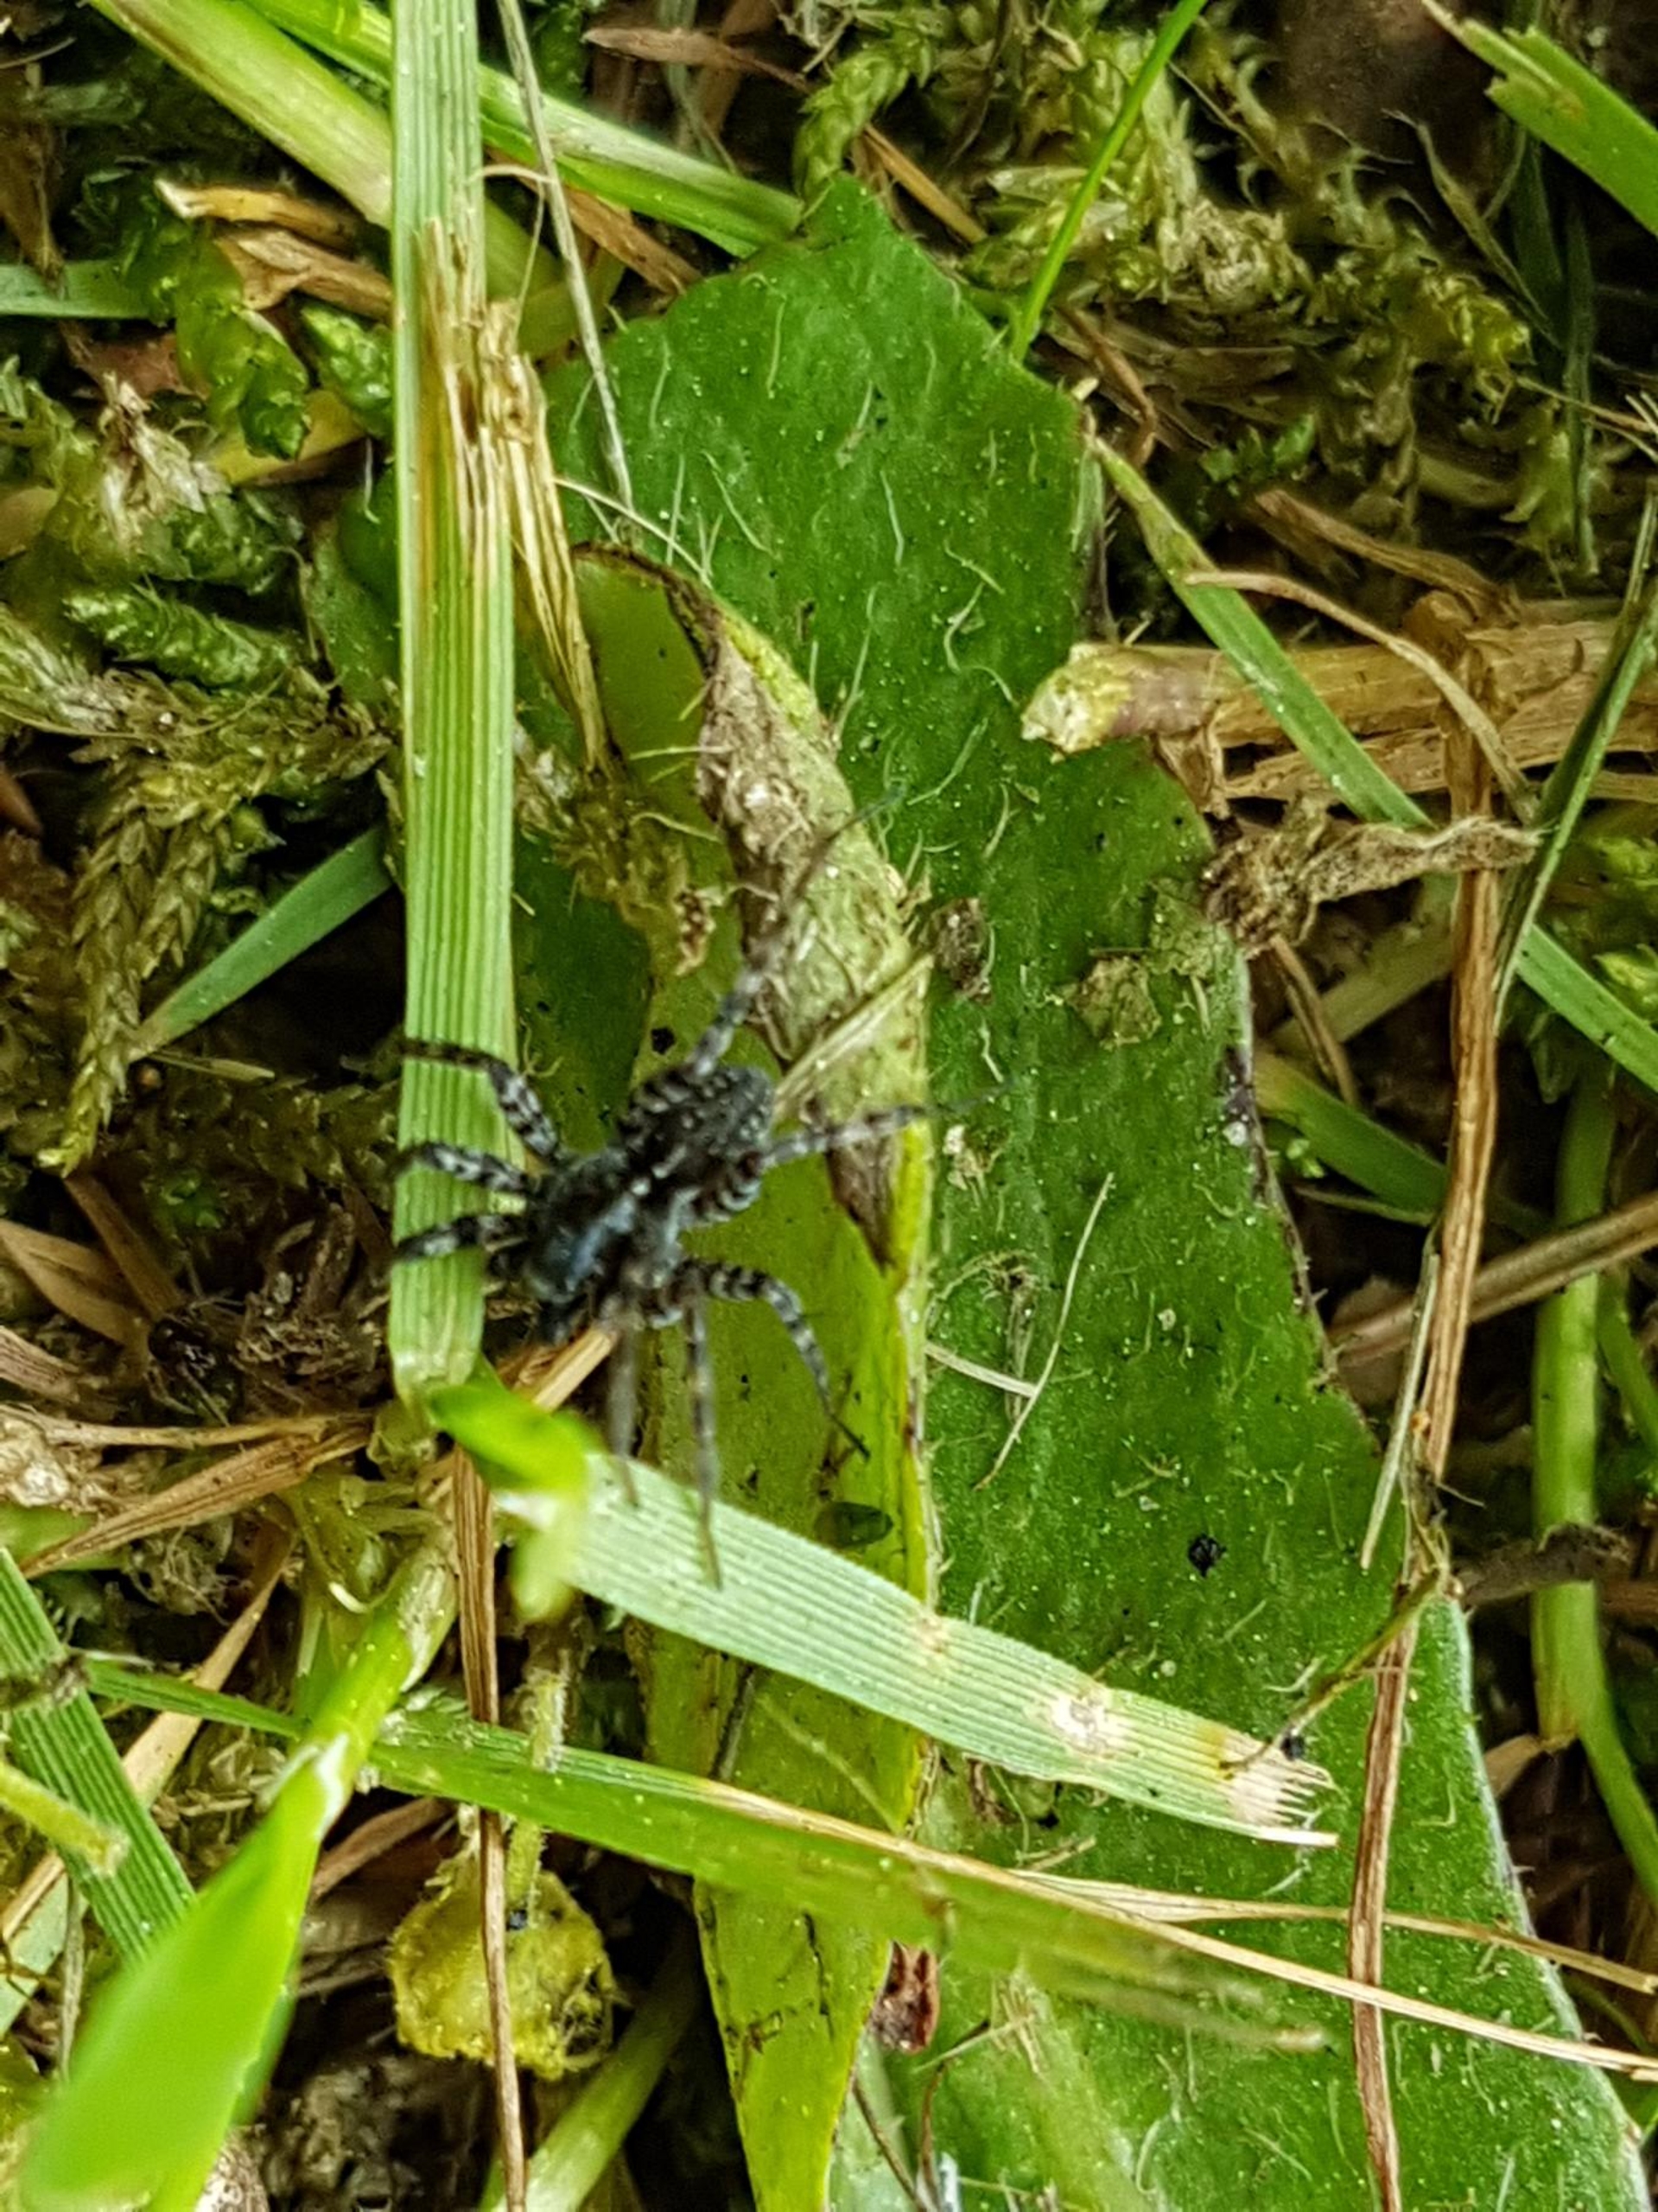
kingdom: Animalia
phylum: Arthropoda
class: Arachnida
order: Araneae
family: Lycosidae
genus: Pardosa
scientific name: Pardosa prativaga
